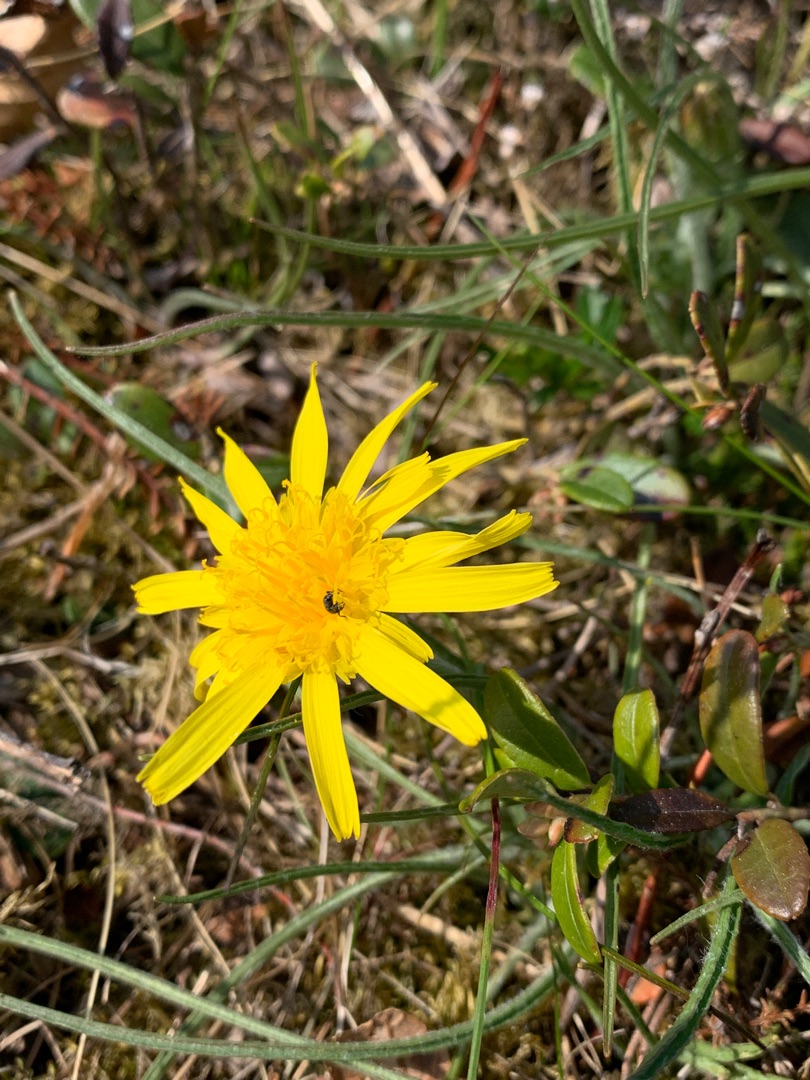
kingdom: Plantae
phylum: Tracheophyta
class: Magnoliopsida
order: Asterales
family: Asteraceae
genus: Scorzonera
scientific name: Scorzonera humilis
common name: Lav skorsoner
